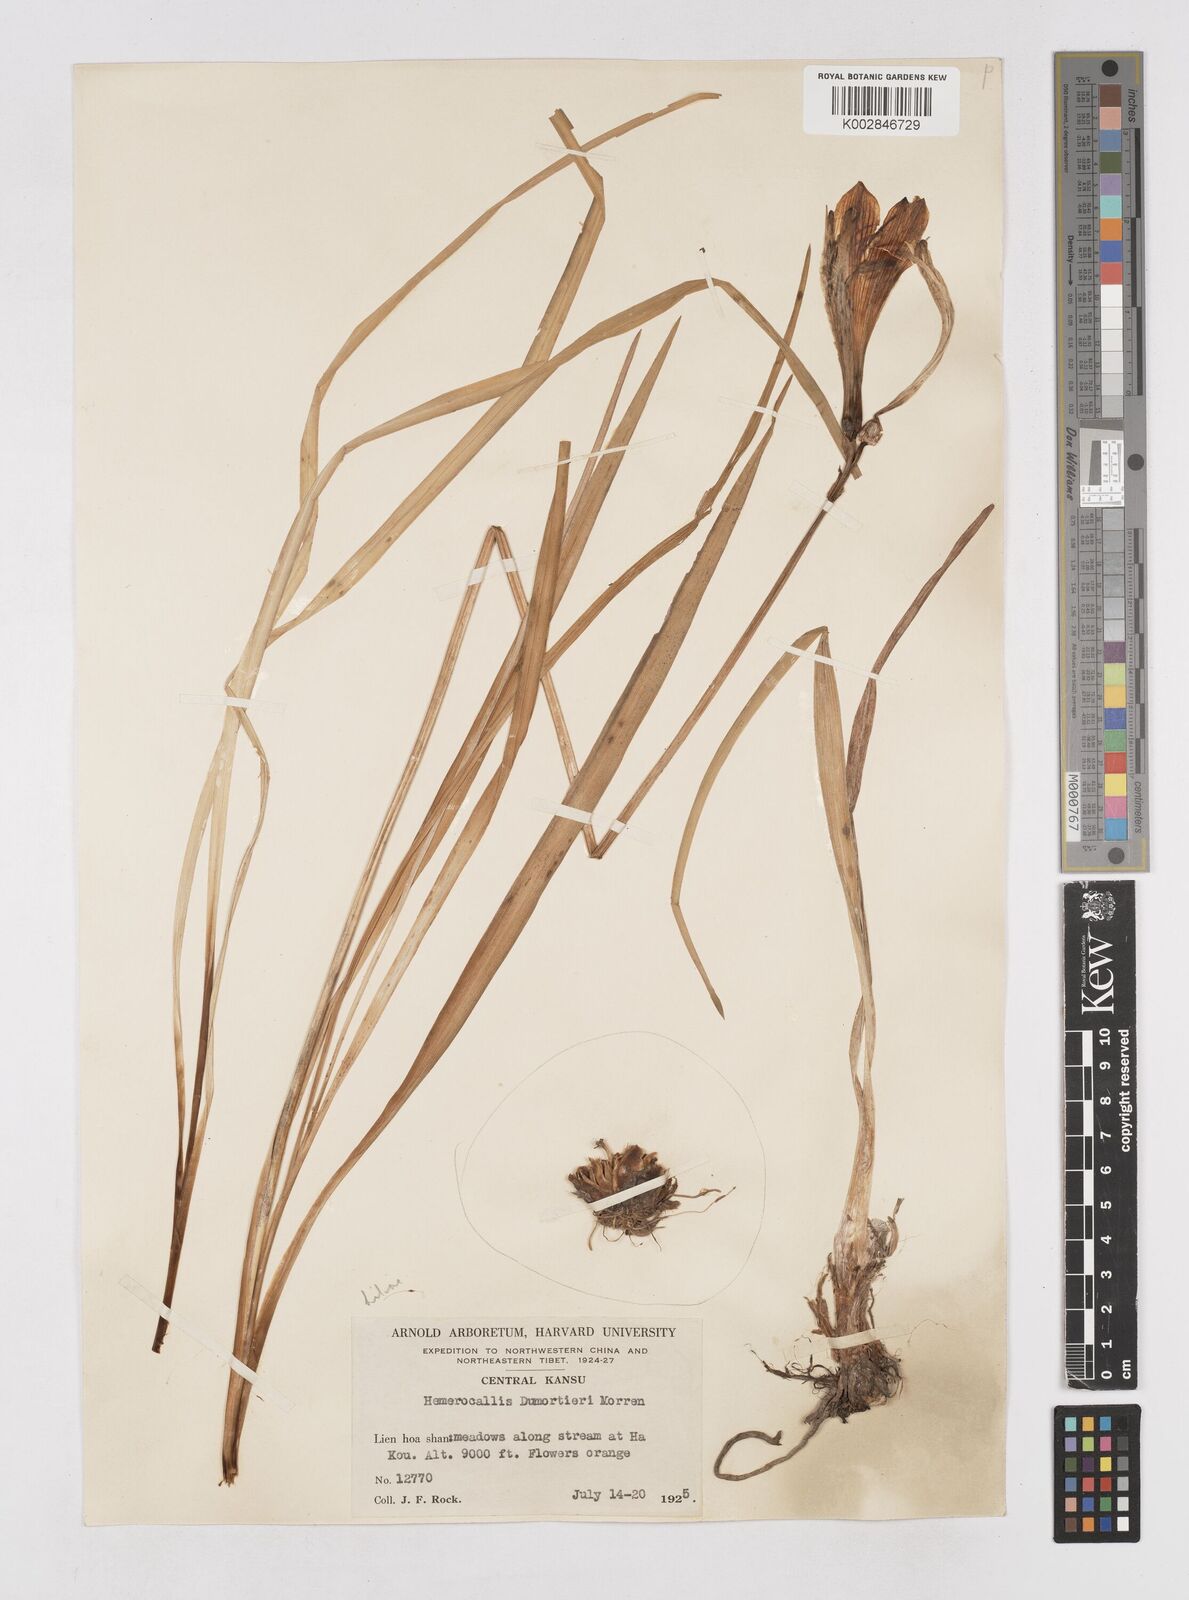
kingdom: Plantae
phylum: Tracheophyta
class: Liliopsida
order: Asparagales
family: Asphodelaceae
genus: Hemerocallis
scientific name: Hemerocallis
